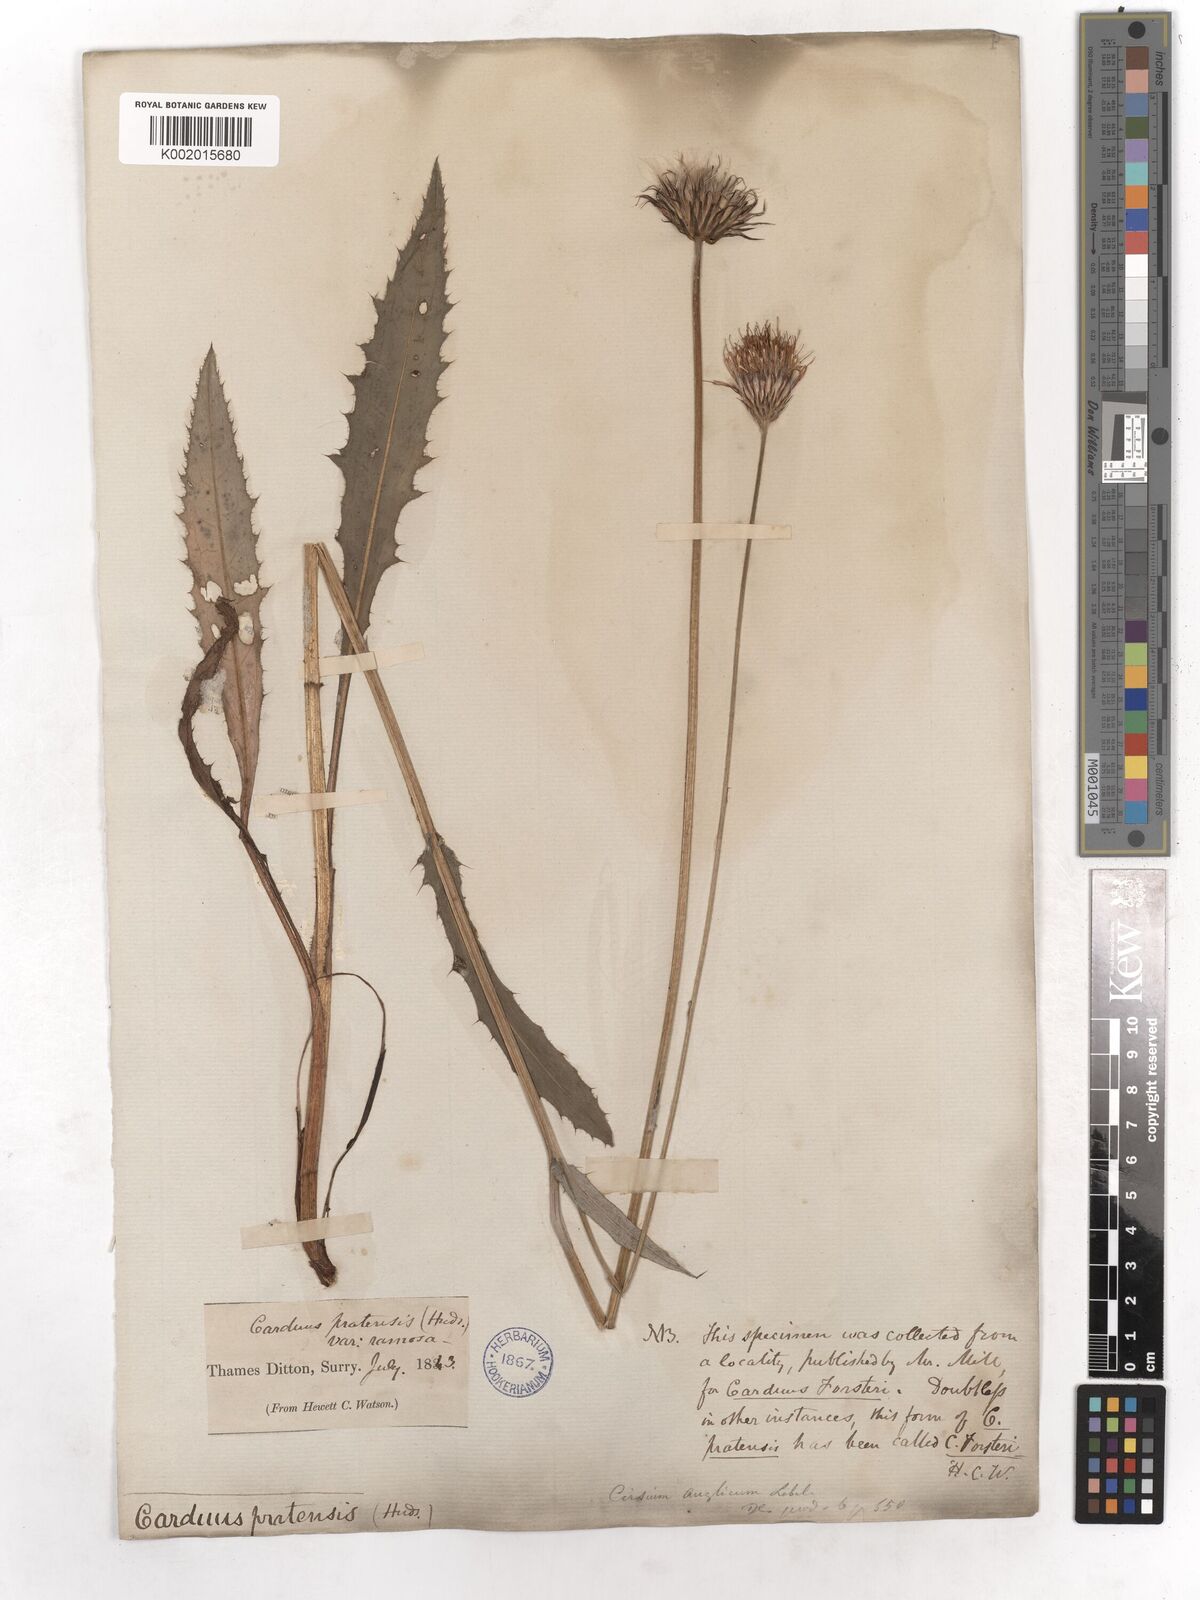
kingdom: Plantae
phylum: Tracheophyta
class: Magnoliopsida
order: Asterales
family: Asteraceae
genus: Cirsium
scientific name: Cirsium monspessulanum
